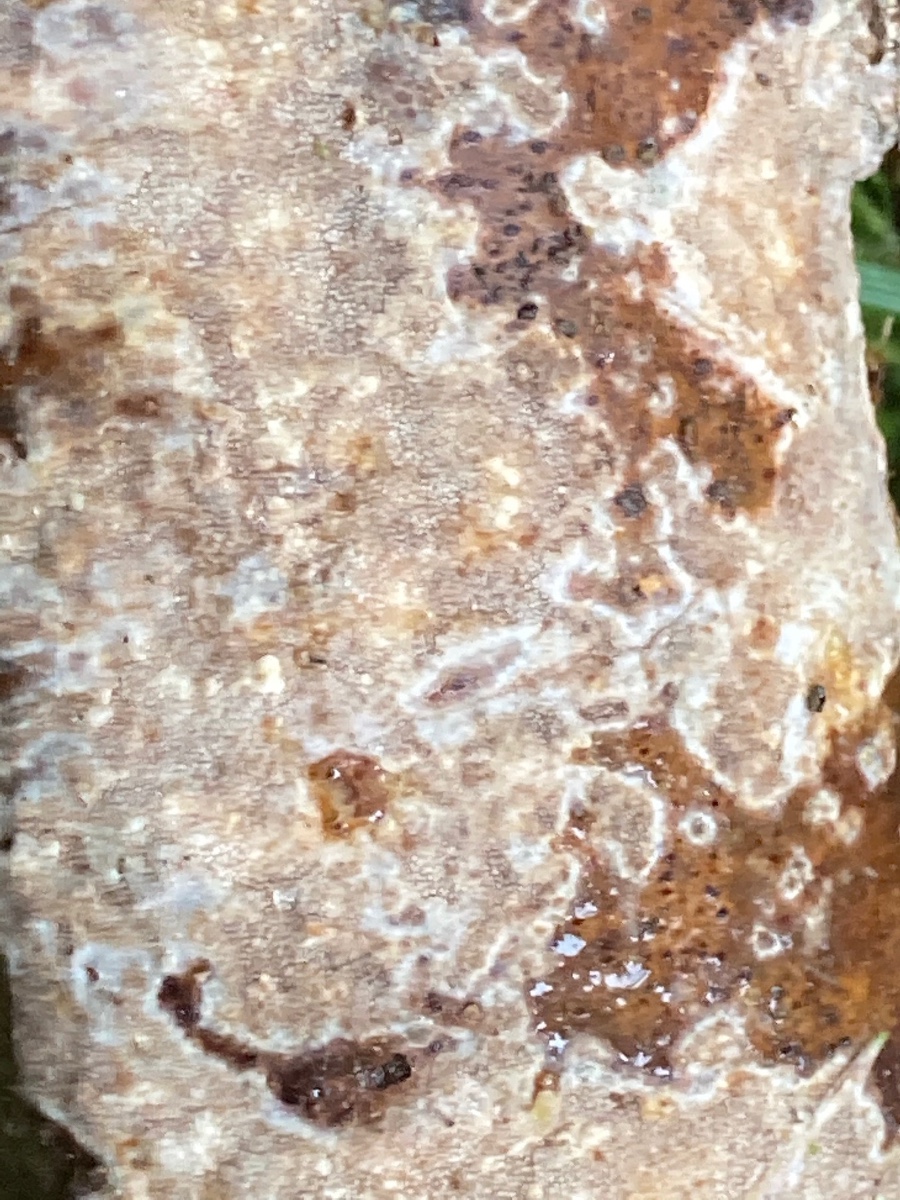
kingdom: Fungi
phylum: Basidiomycota
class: Agaricomycetes
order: Hymenochaetales
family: Rickenellaceae
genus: Resinicium
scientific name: Resinicium bicolor
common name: almindelig vokstand
